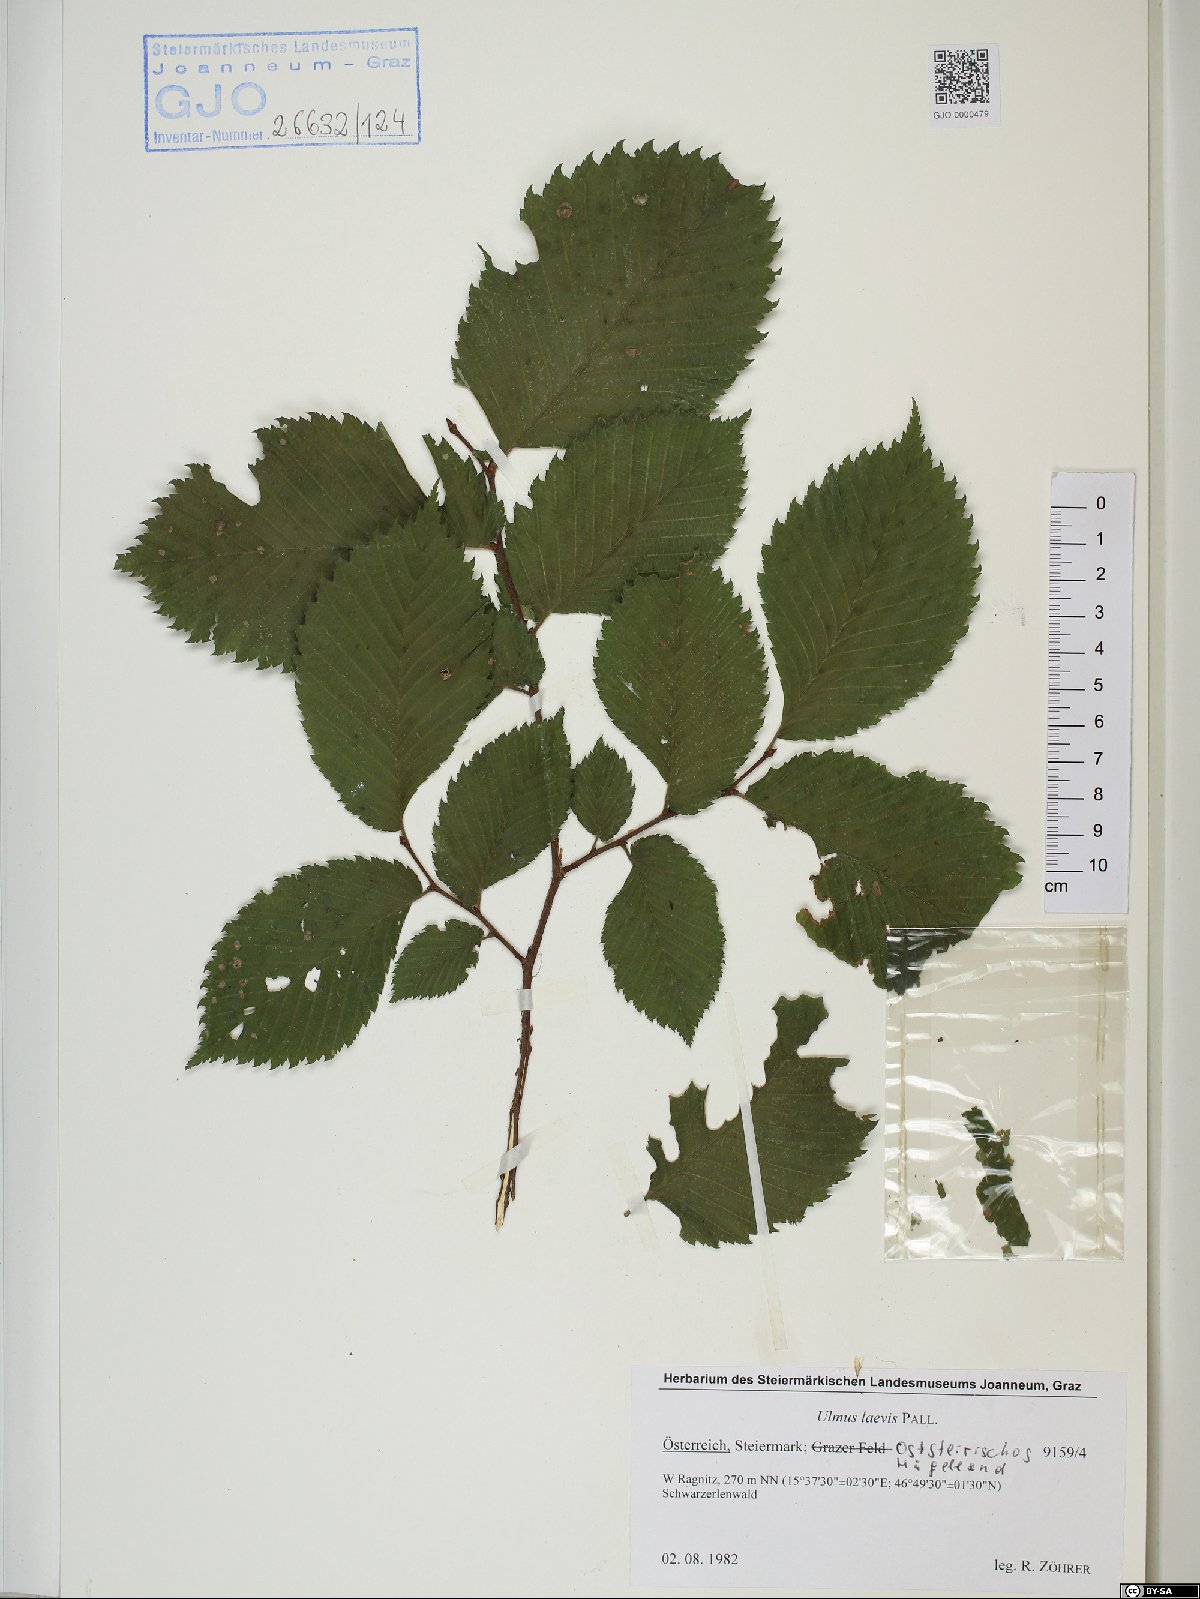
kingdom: Plantae
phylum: Tracheophyta
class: Magnoliopsida
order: Rosales
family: Ulmaceae
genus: Ulmus
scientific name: Ulmus laevis
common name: European white-elm
